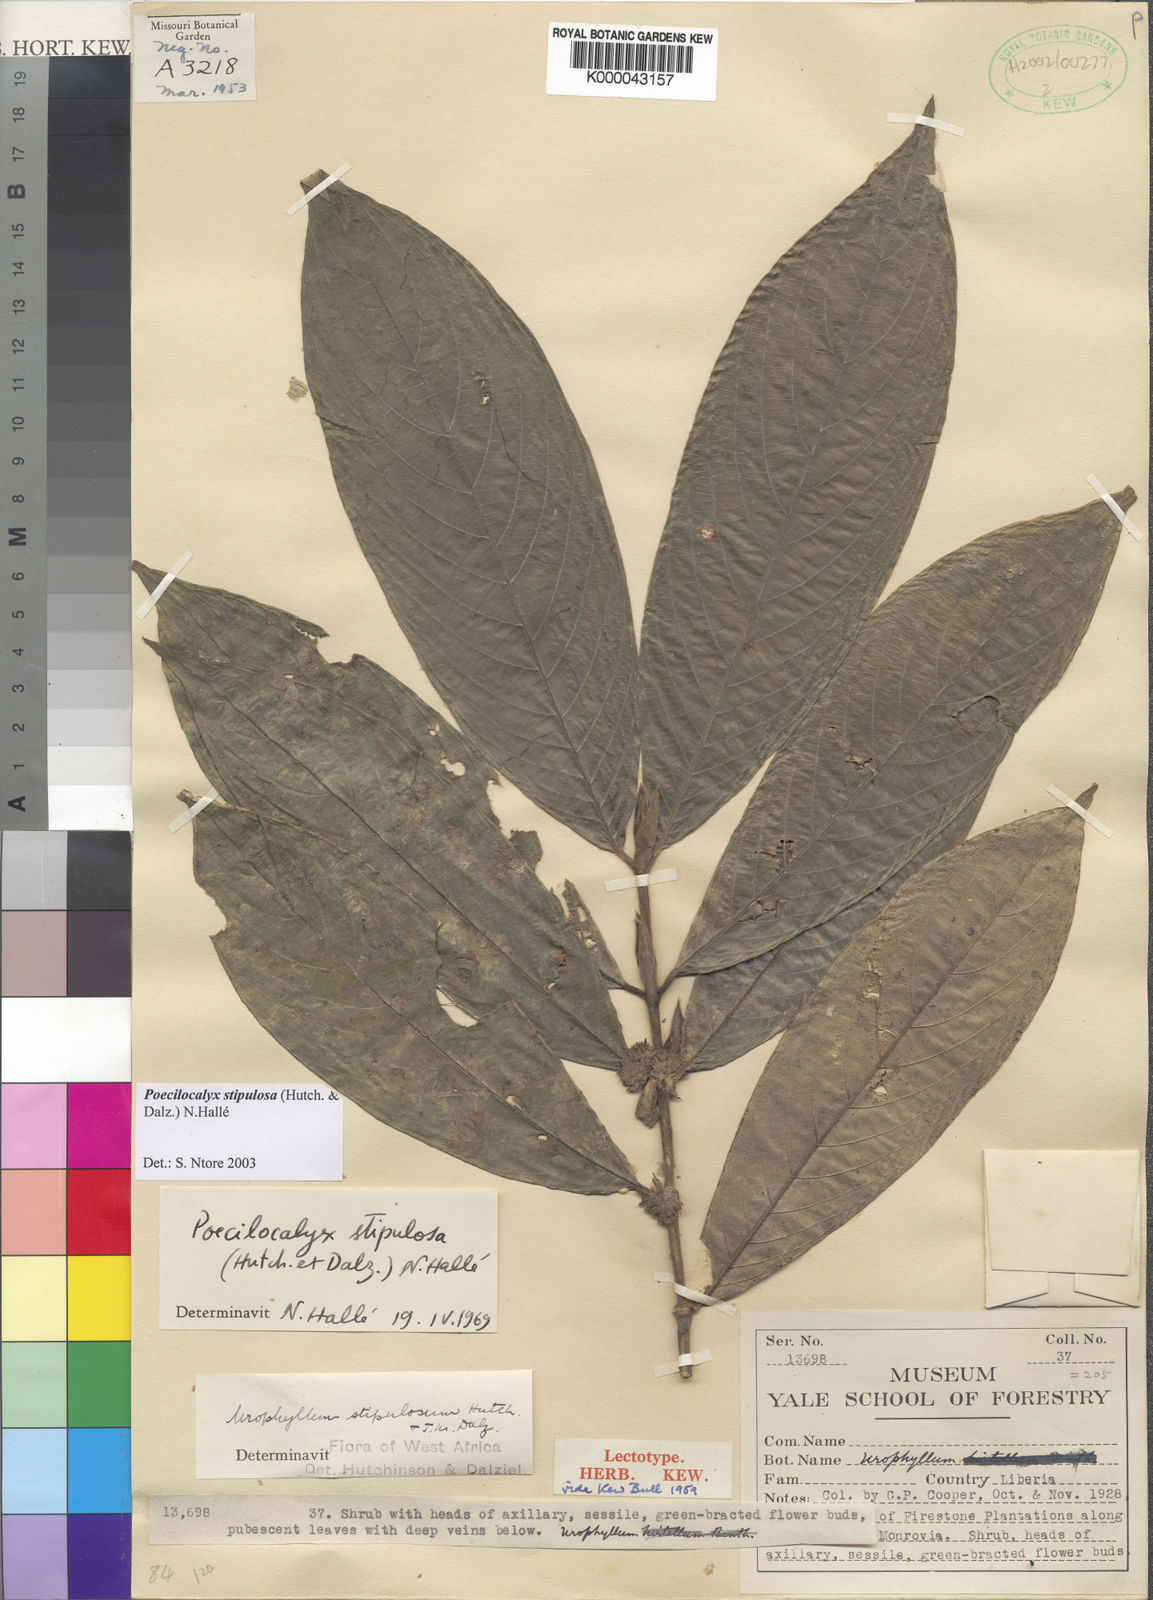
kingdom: Plantae
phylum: Tracheophyta
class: Magnoliopsida
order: Gentianales
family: Rubiaceae
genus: Pauridiantha
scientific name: Pauridiantha
